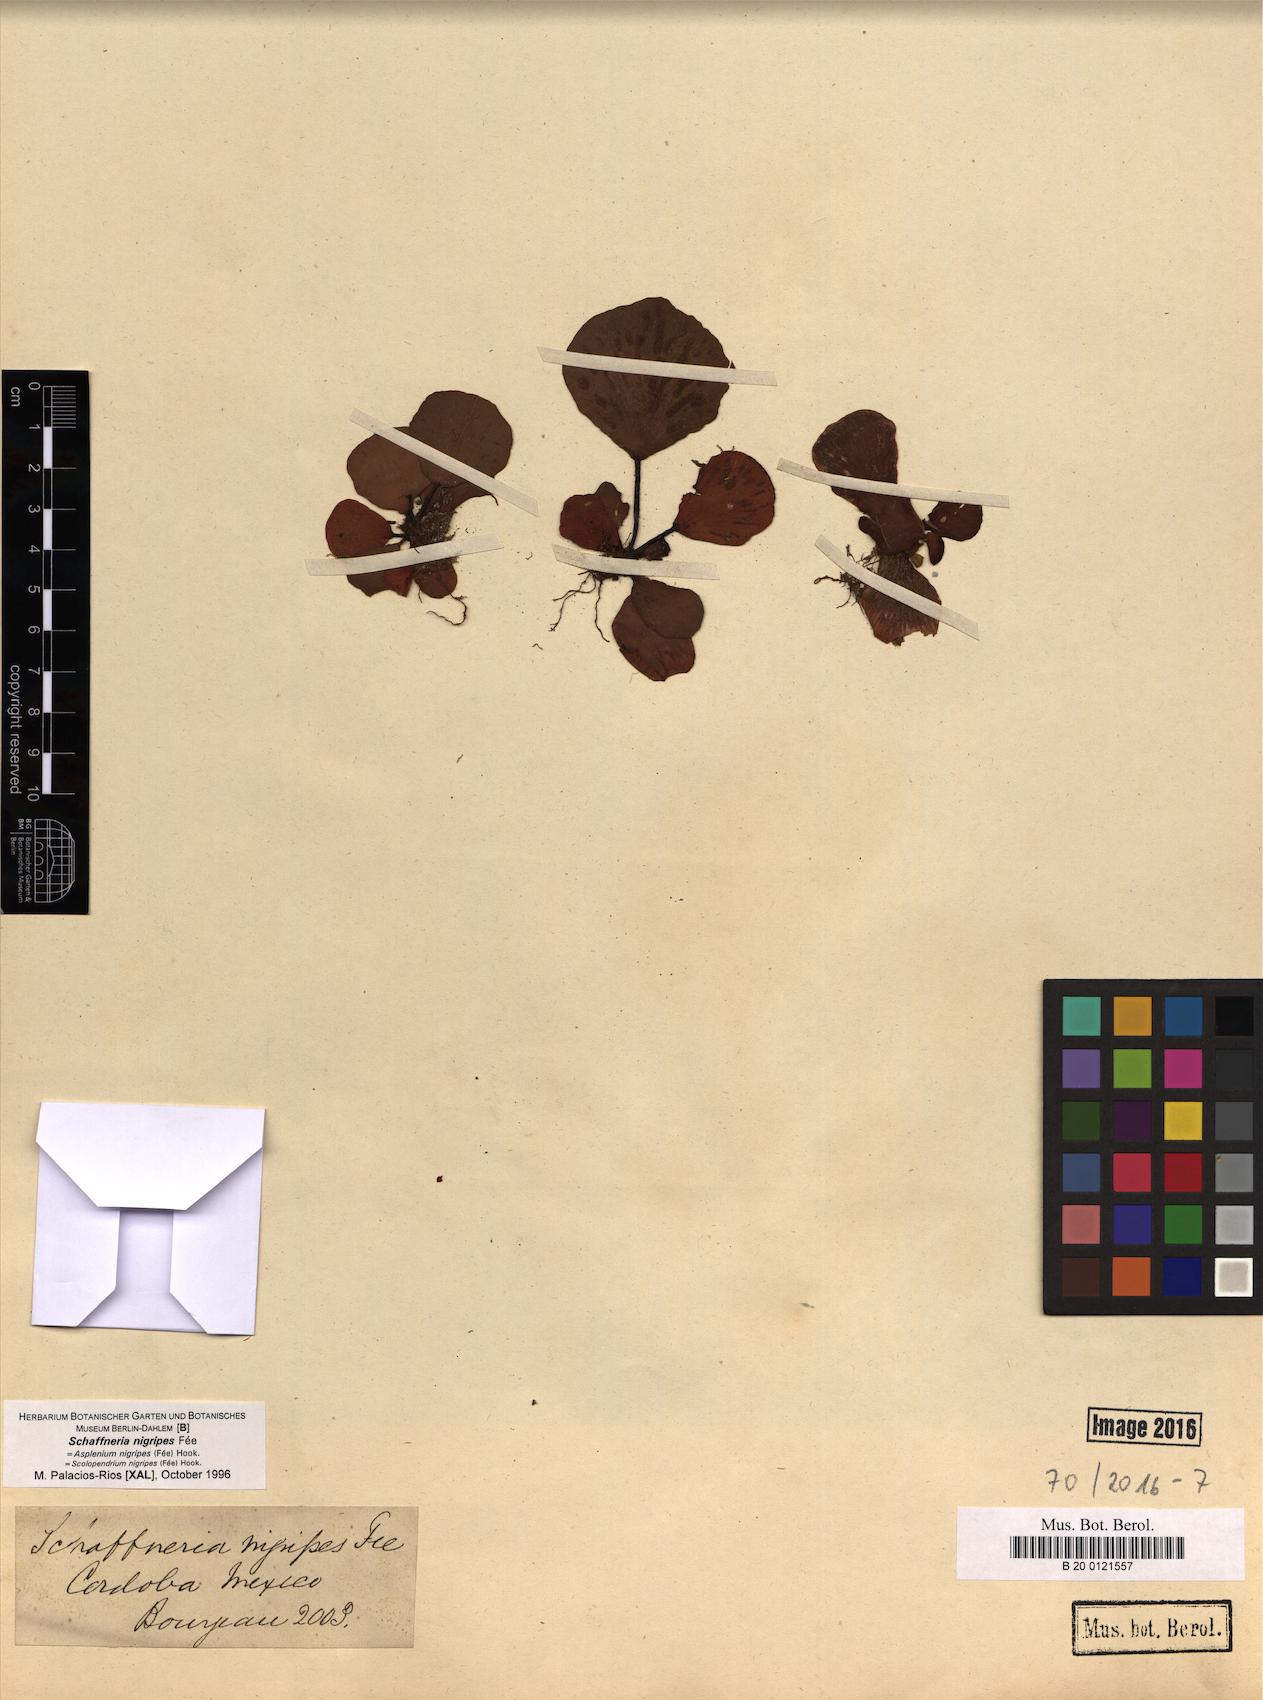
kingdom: Plantae
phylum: Tracheophyta
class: Polypodiopsida
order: Polypodiales
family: Aspleniaceae
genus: Asplenium
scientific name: Asplenium nigripes
